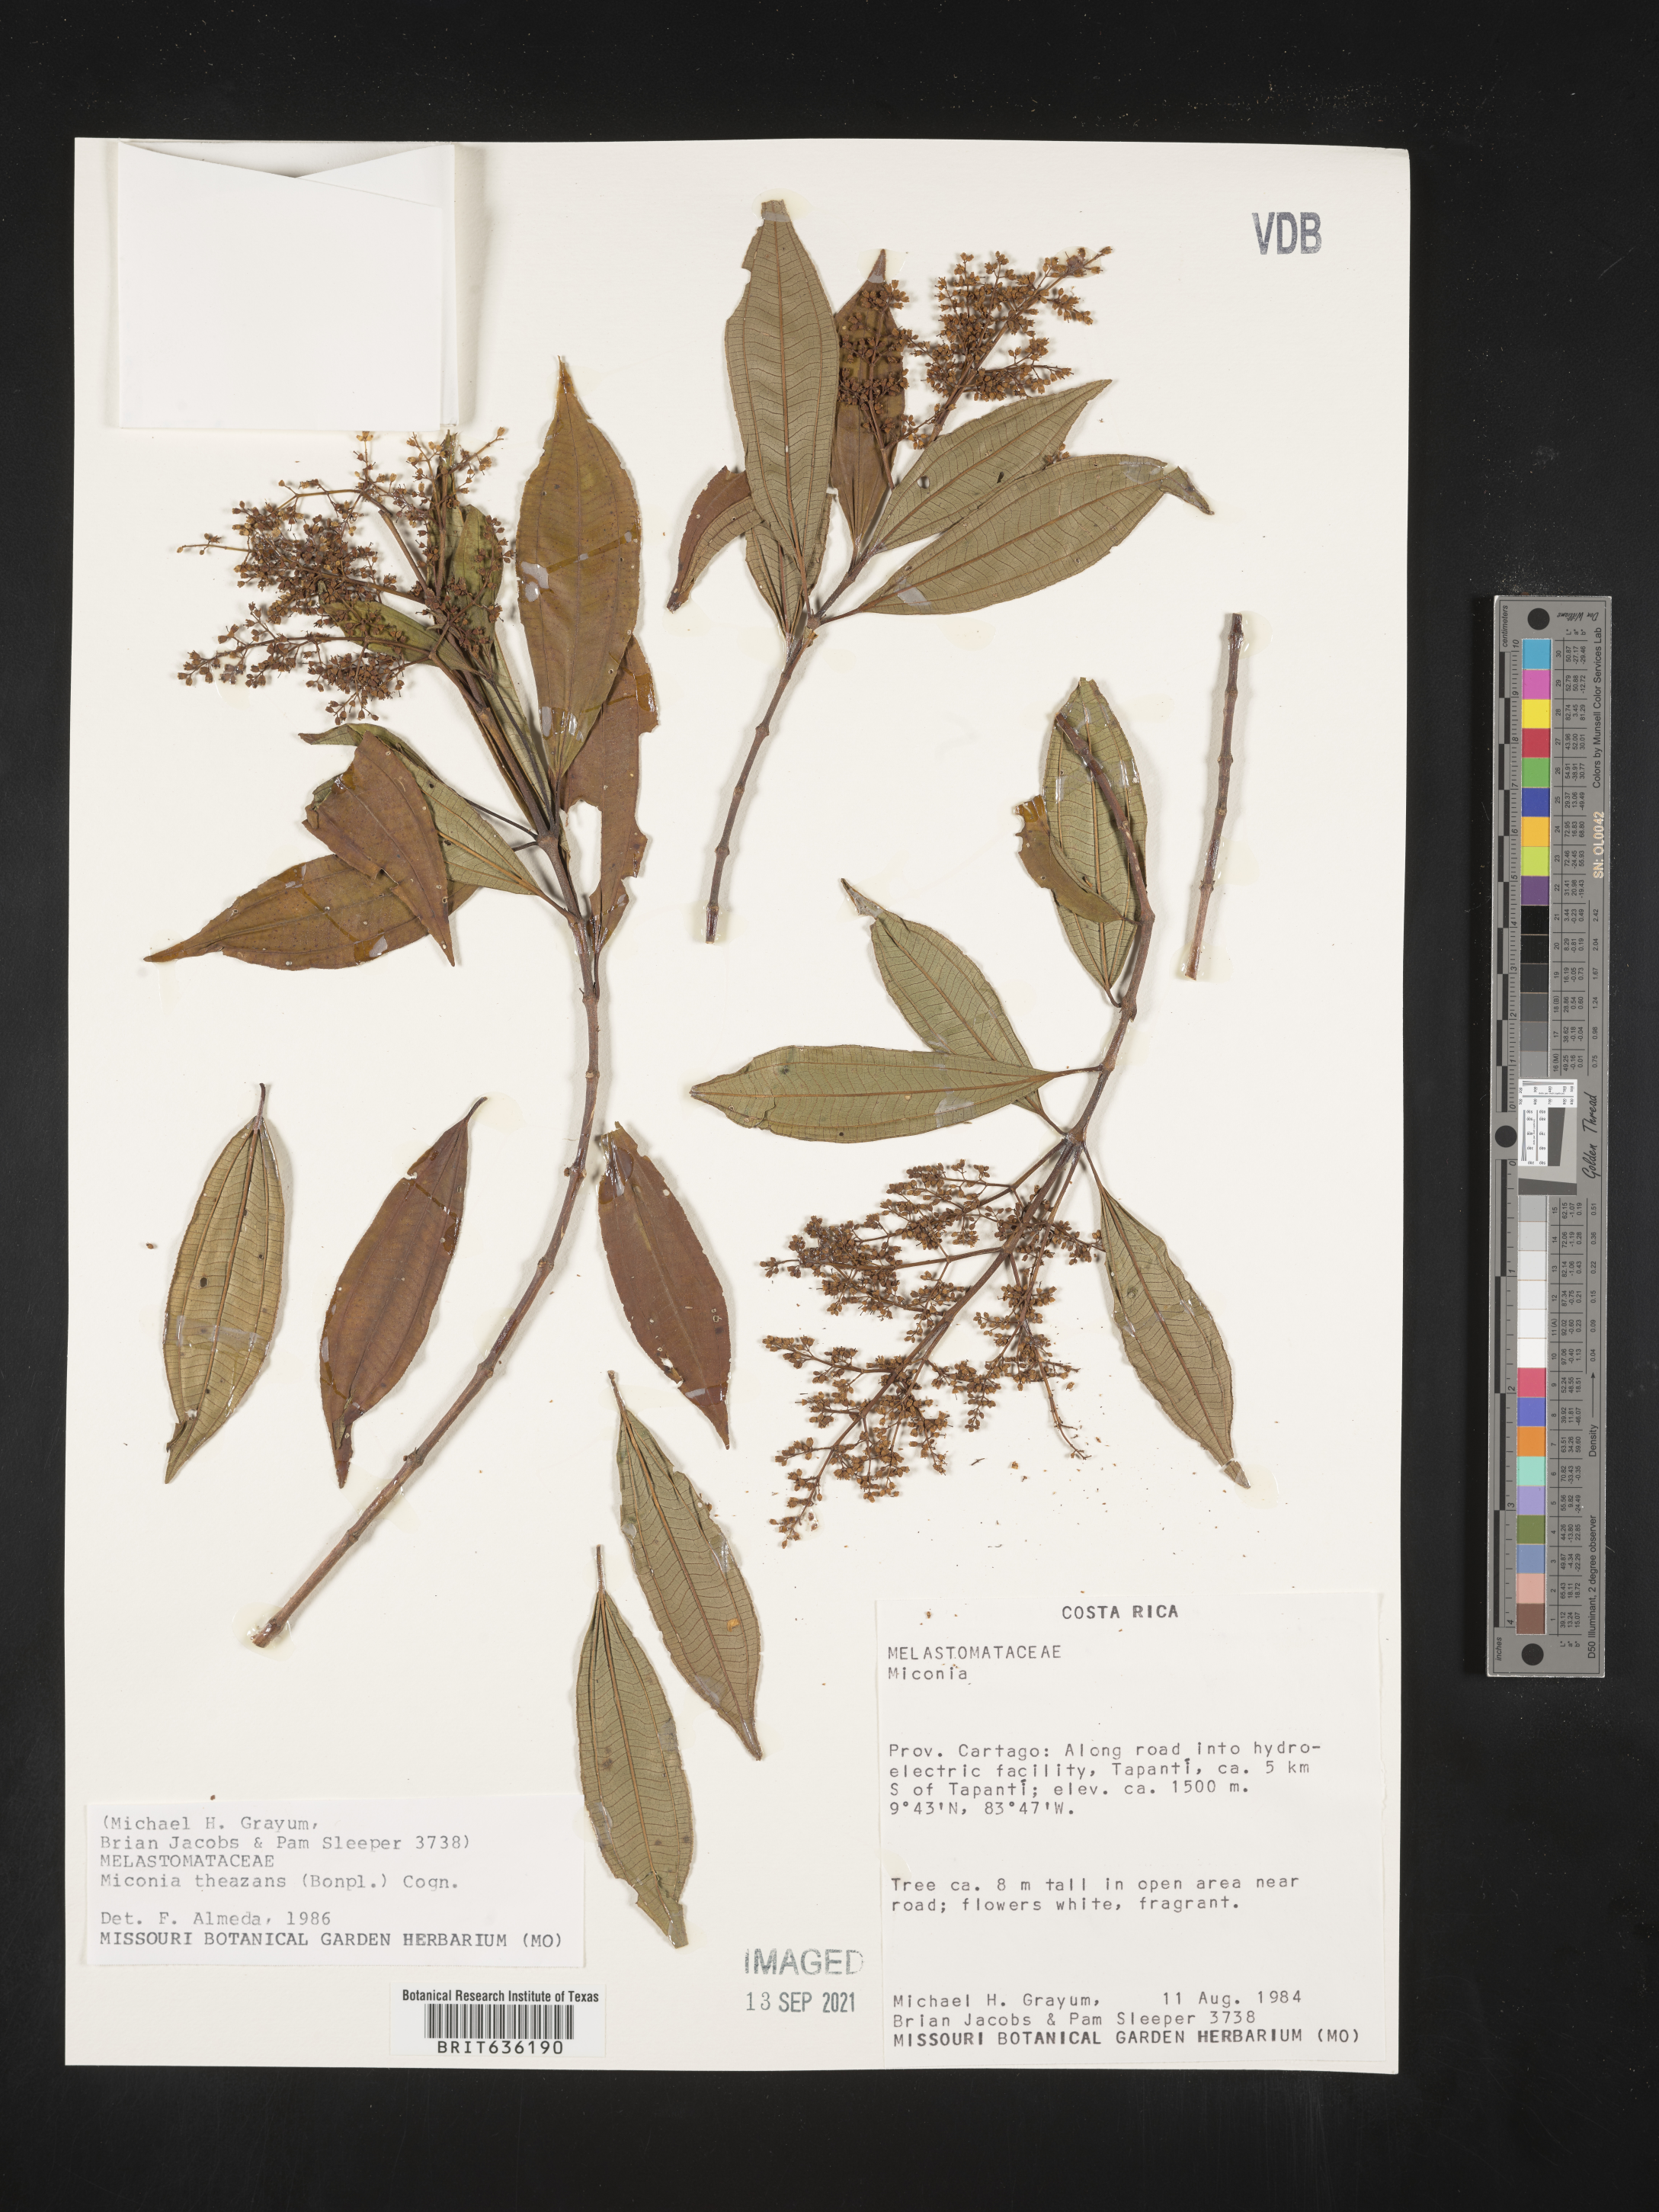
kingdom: Plantae
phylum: Tracheophyta
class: Magnoliopsida
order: Myrtales
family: Melastomataceae
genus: Miconia
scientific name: Miconia
